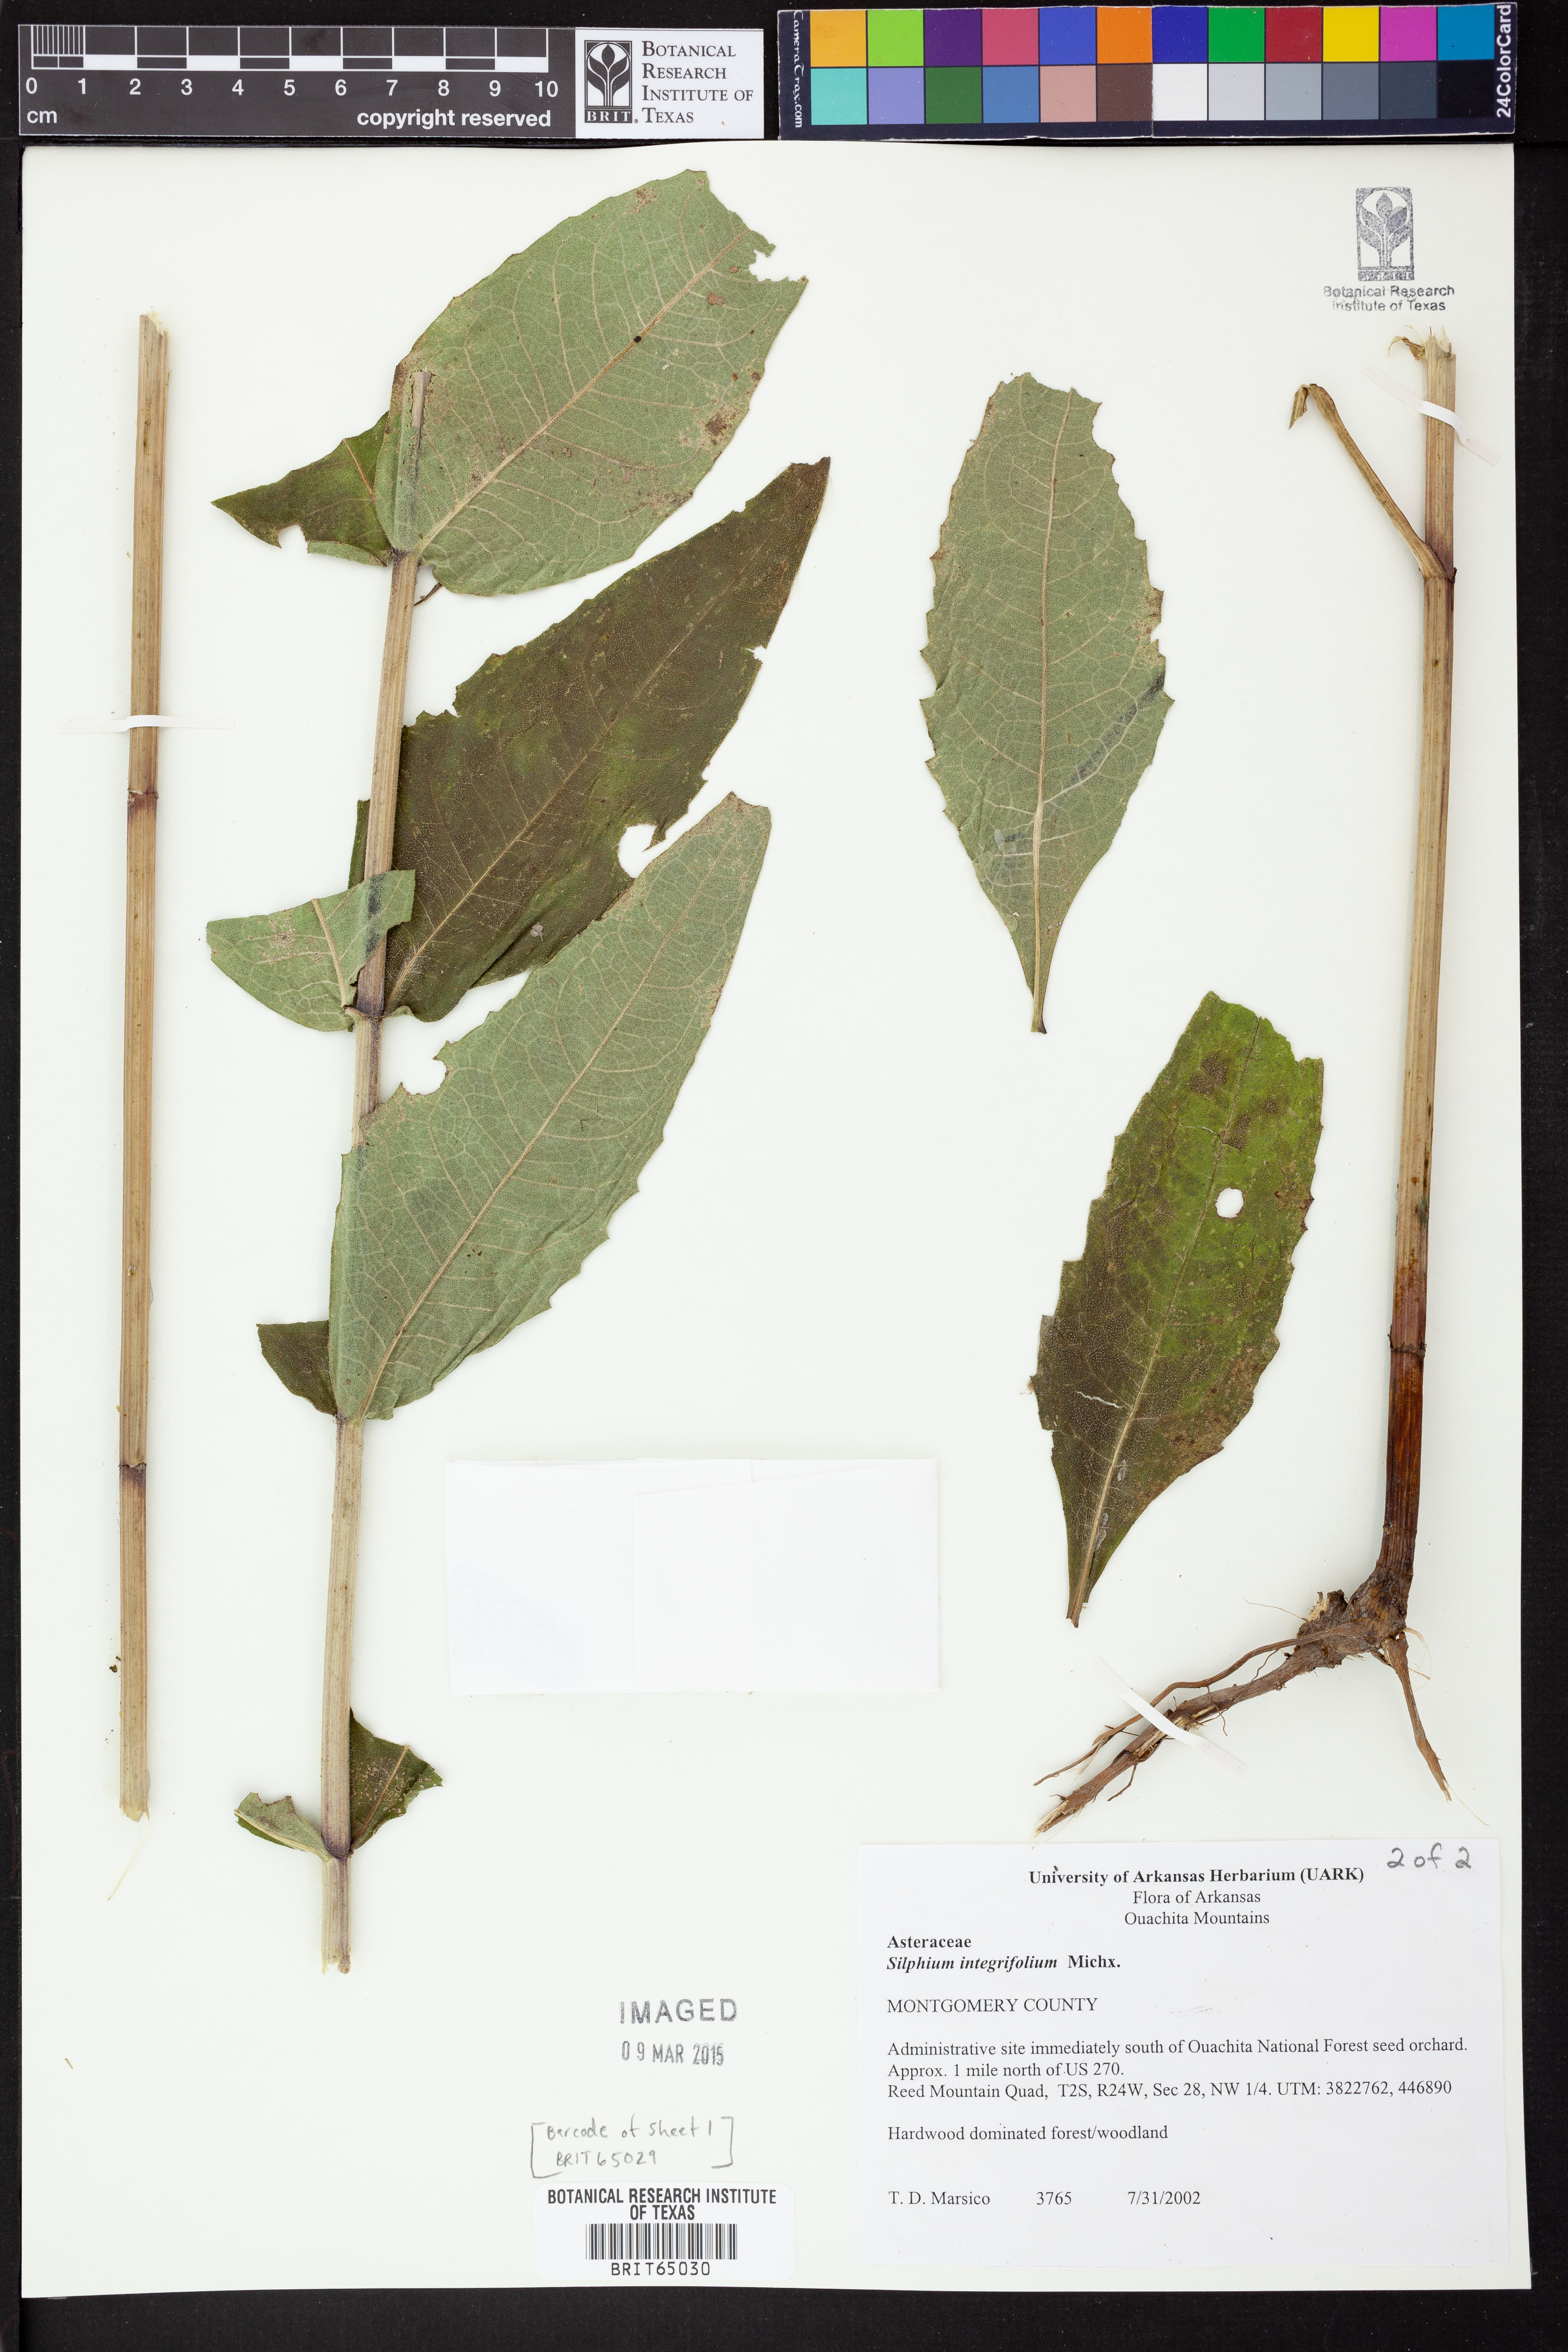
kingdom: Plantae
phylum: Tracheophyta
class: Magnoliopsida
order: Asterales
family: Asteraceae
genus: Silphium
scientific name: Silphium integrifolium
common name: Whole-leaf rosinweed
